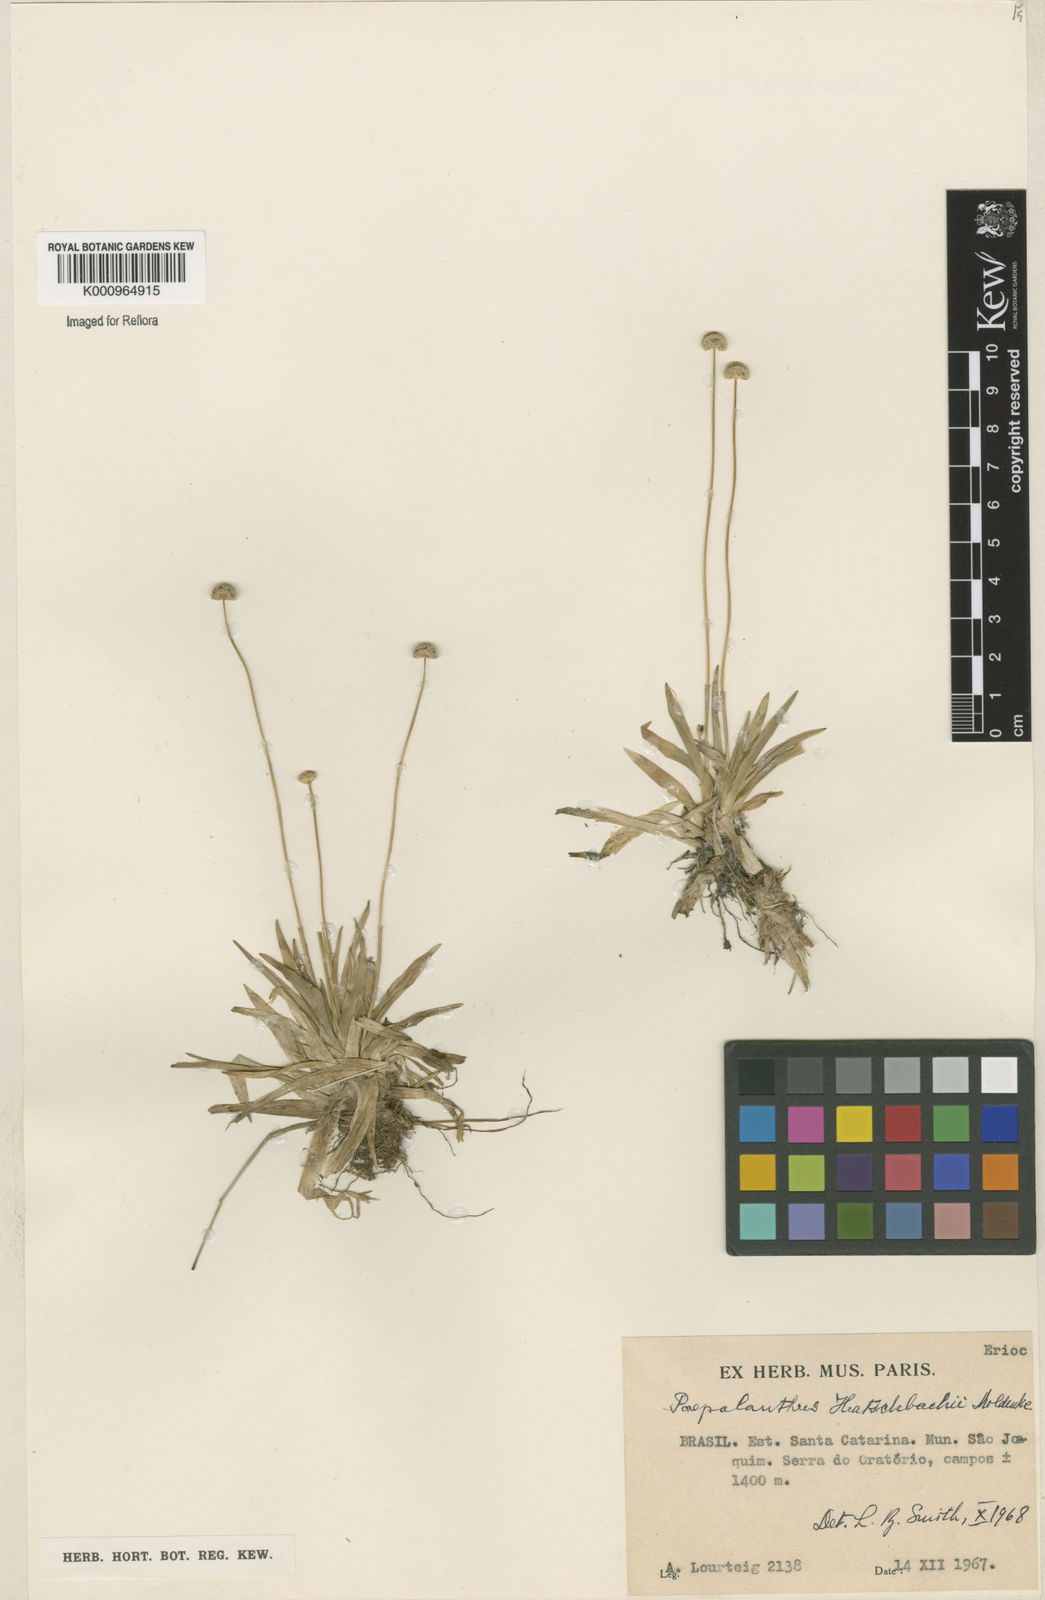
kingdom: Plantae
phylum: Tracheophyta
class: Liliopsida
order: Poales
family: Eriocaulaceae
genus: Paepalanthus
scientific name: Paepalanthus catharinae
